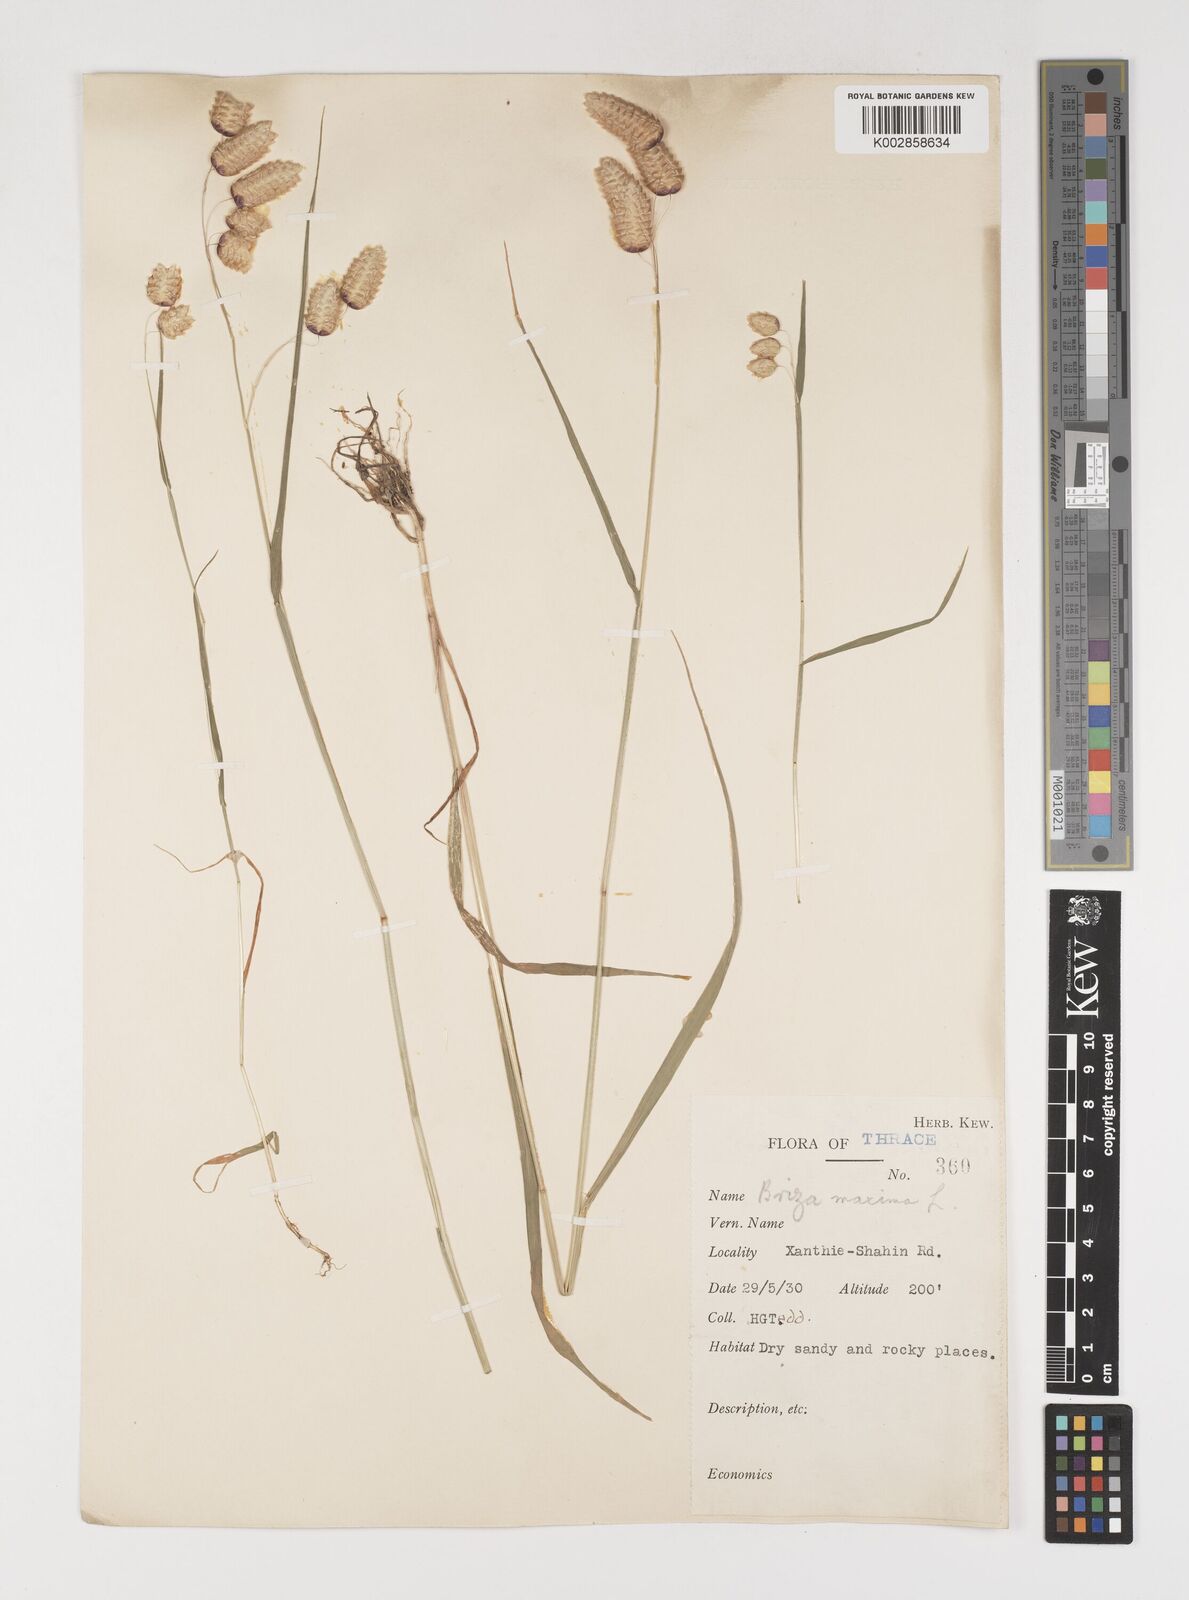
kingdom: Plantae
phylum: Tracheophyta
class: Liliopsida
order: Poales
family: Poaceae
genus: Briza
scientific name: Briza maxima
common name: Big quakinggrass
